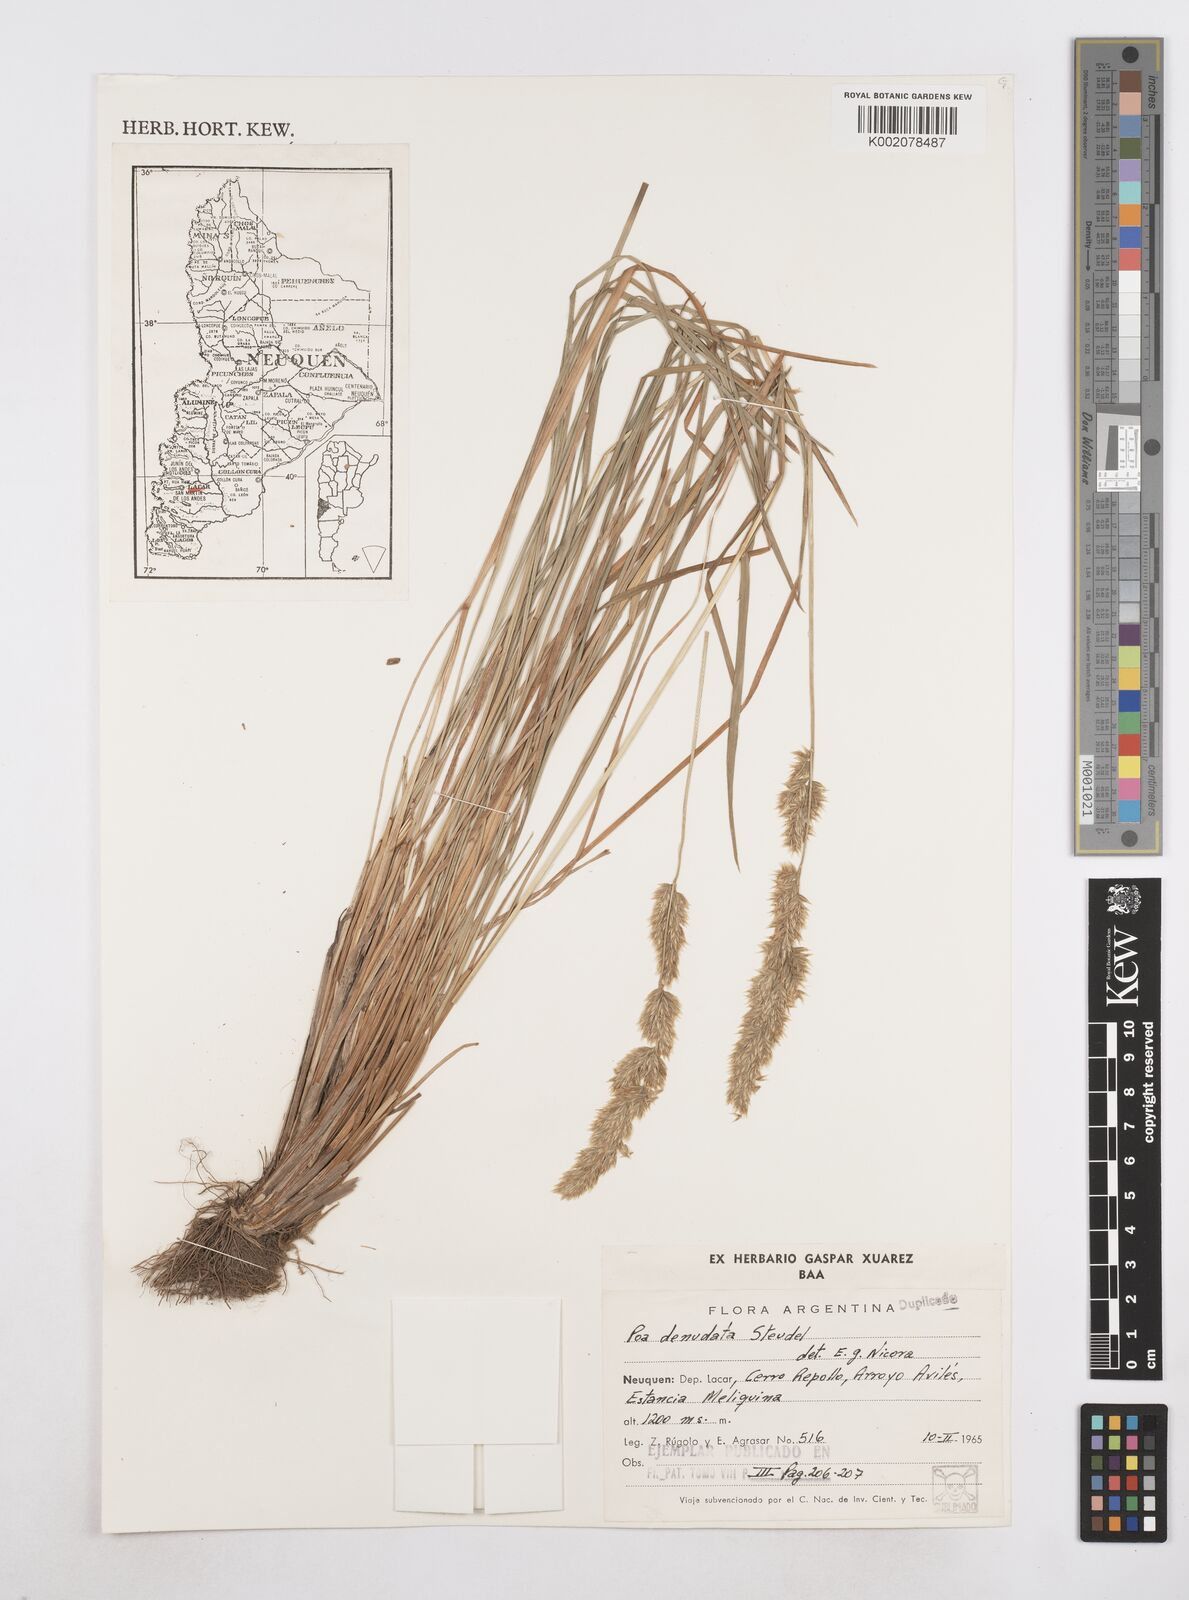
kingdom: Plantae
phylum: Tracheophyta
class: Liliopsida
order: Poales
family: Poaceae
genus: Poa
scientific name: Poa denudata
